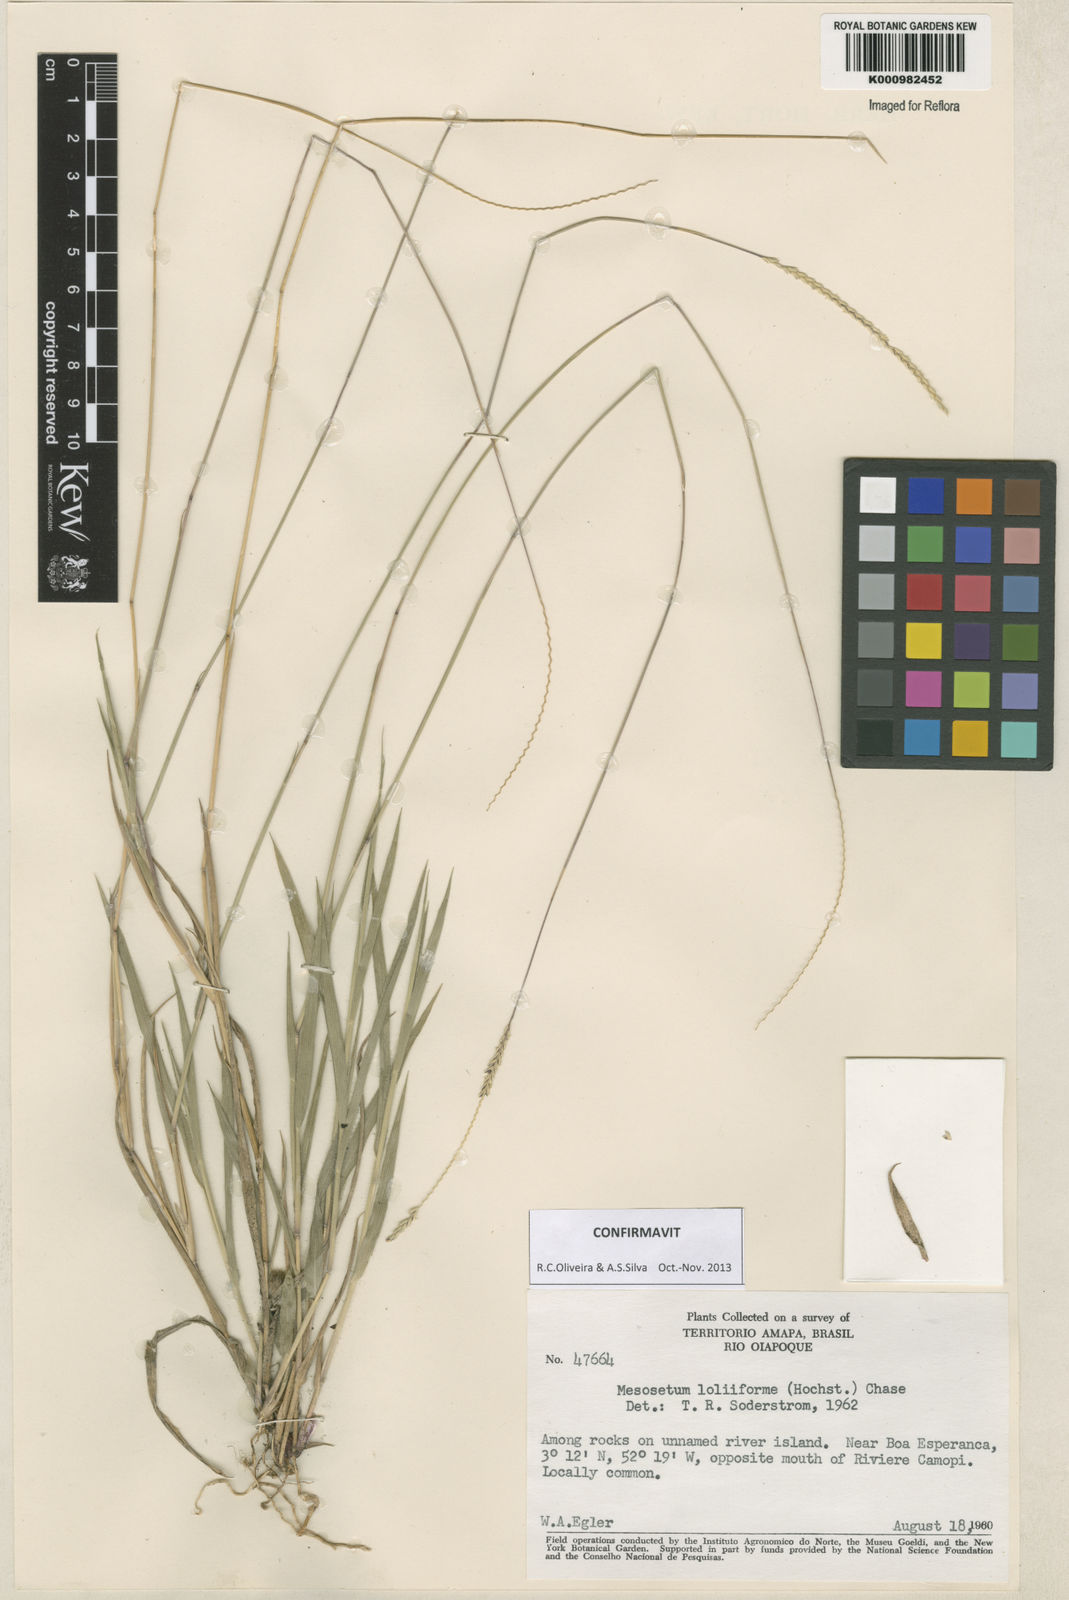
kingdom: Plantae
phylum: Tracheophyta
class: Liliopsida
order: Poales
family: Poaceae
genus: Mesosetum
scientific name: Mesosetum
